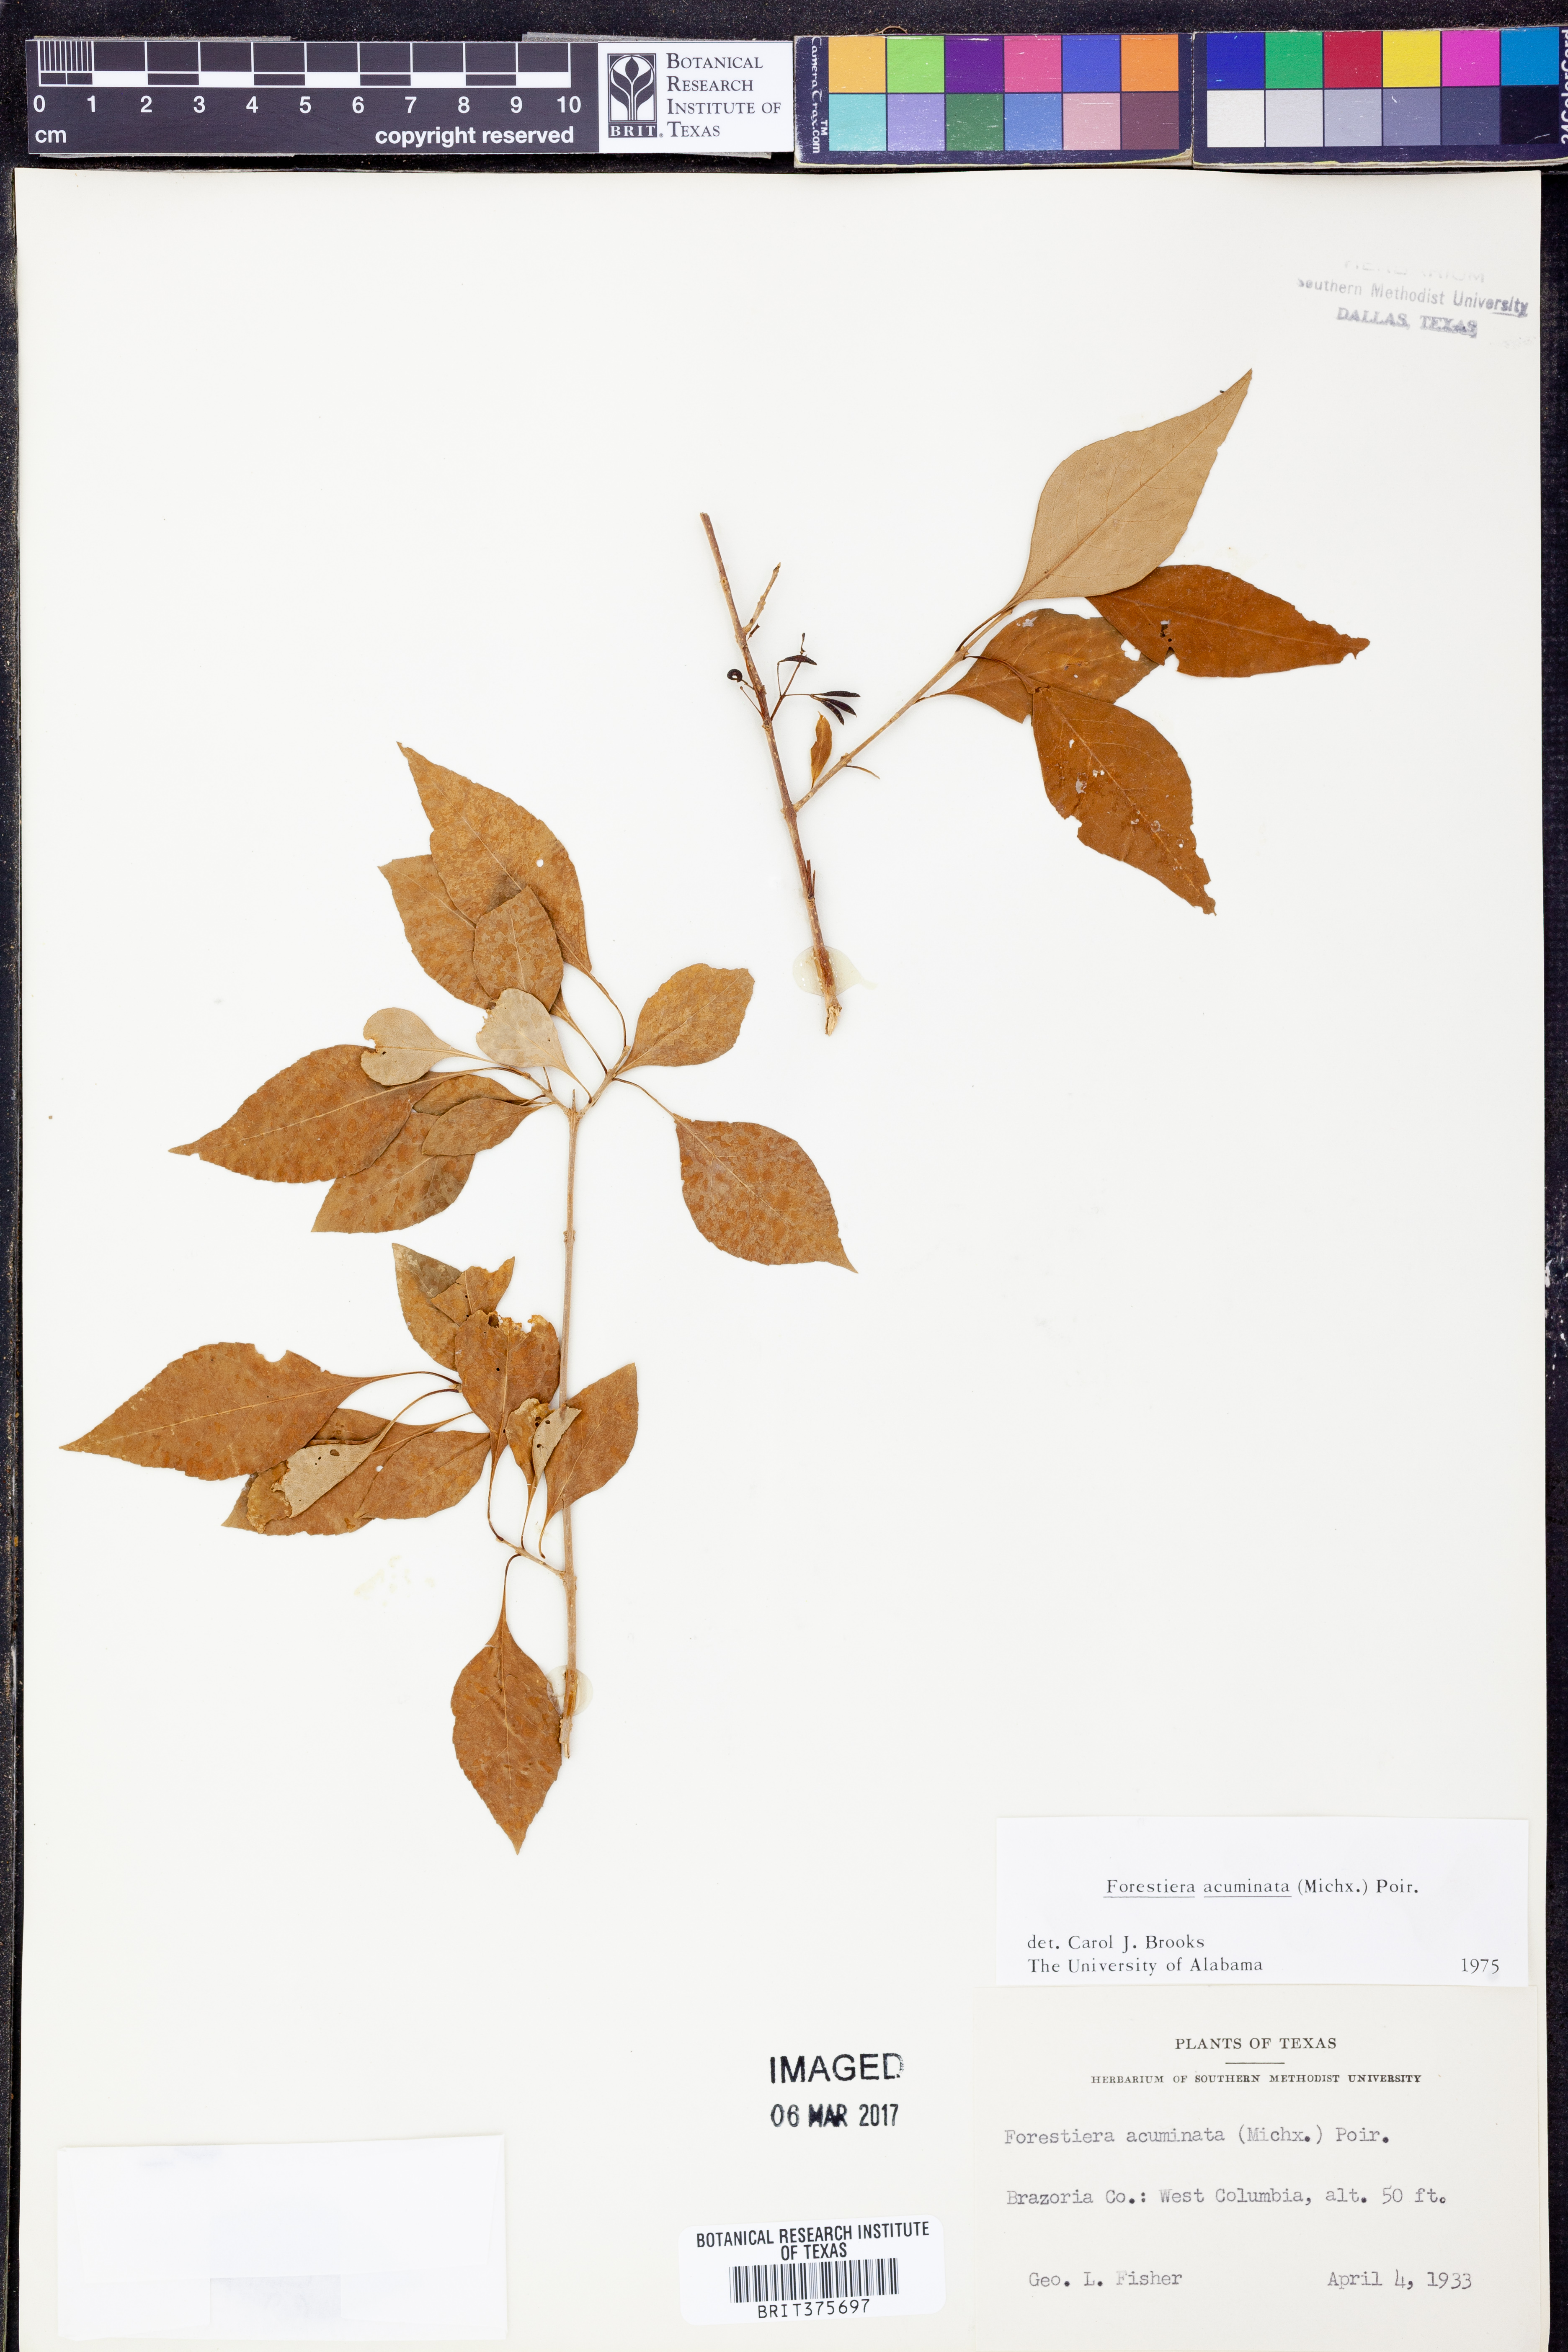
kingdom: Plantae
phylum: Tracheophyta
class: Magnoliopsida
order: Lamiales
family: Oleaceae
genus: Forestiera
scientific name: Forestiera acuminata
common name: Swamp-privet
